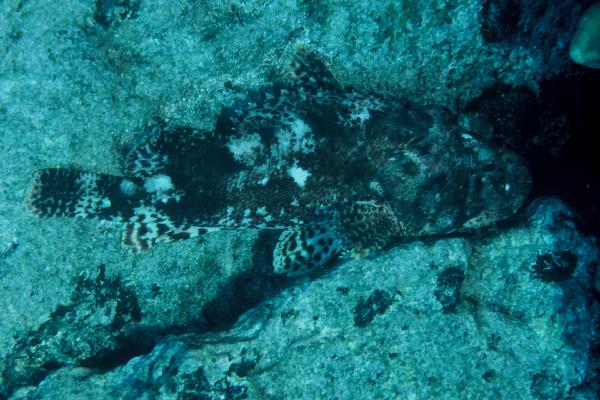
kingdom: Animalia
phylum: Chordata
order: Scorpaeniformes
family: Scorpaenidae
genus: Scorpaena
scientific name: Scorpaena orgila
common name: Bold scorpionfish
